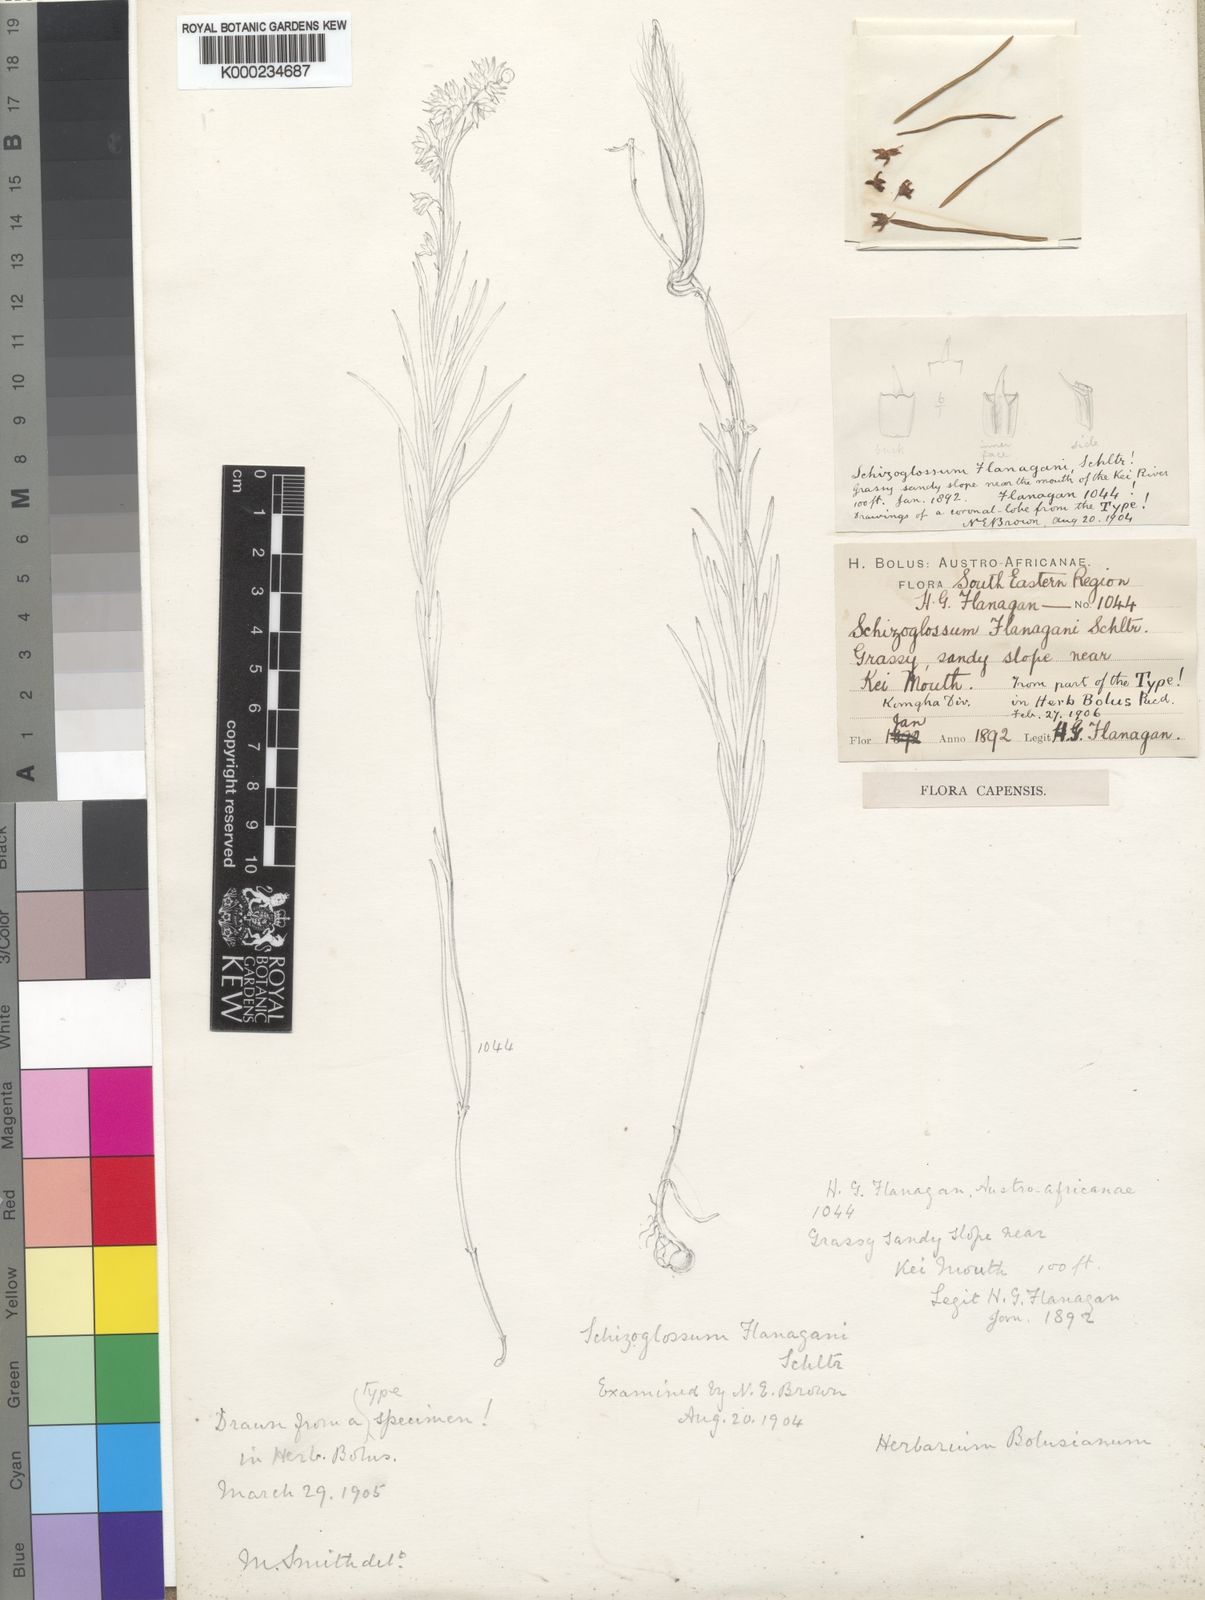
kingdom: Plantae
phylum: Tracheophyta
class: Magnoliopsida
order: Gentianales
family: Apocynaceae
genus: Aspidoglossum
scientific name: Aspidoglossum flanaganii
